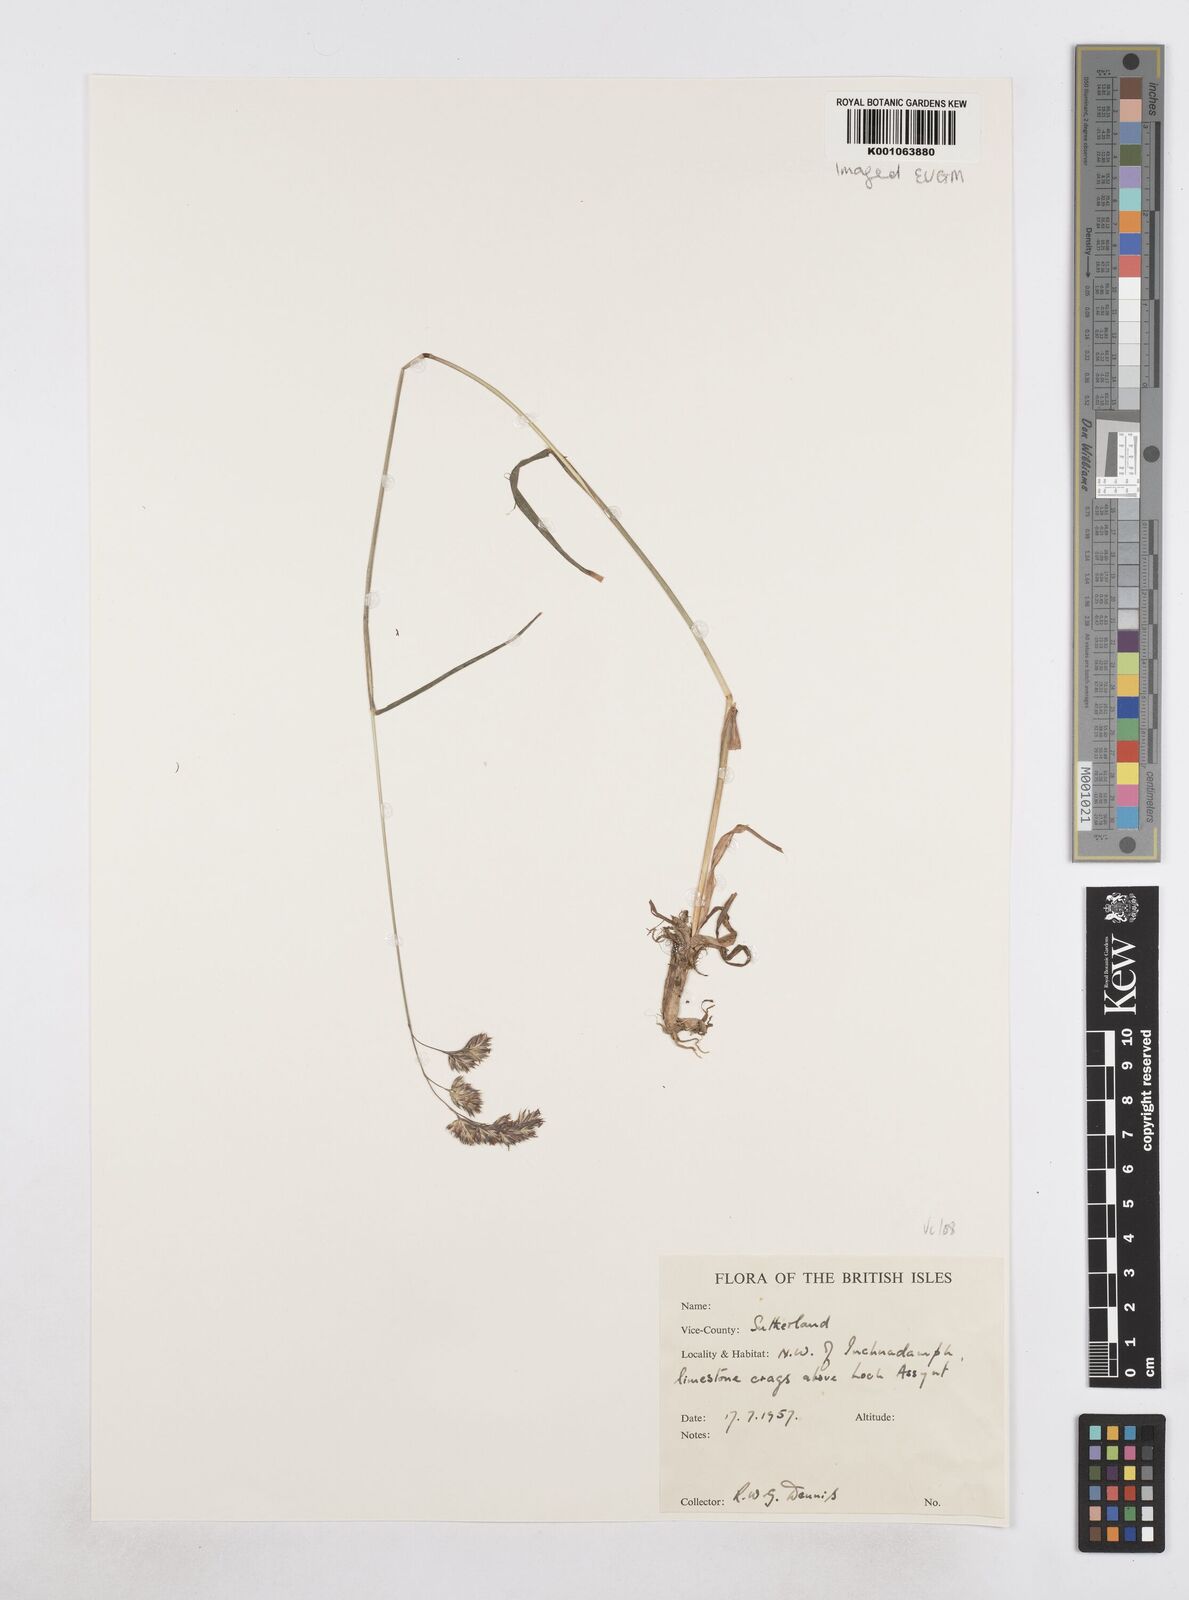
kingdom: Plantae
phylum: Tracheophyta
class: Liliopsida
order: Poales
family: Poaceae
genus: Dactylis
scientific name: Dactylis glomerata
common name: Orchardgrass
